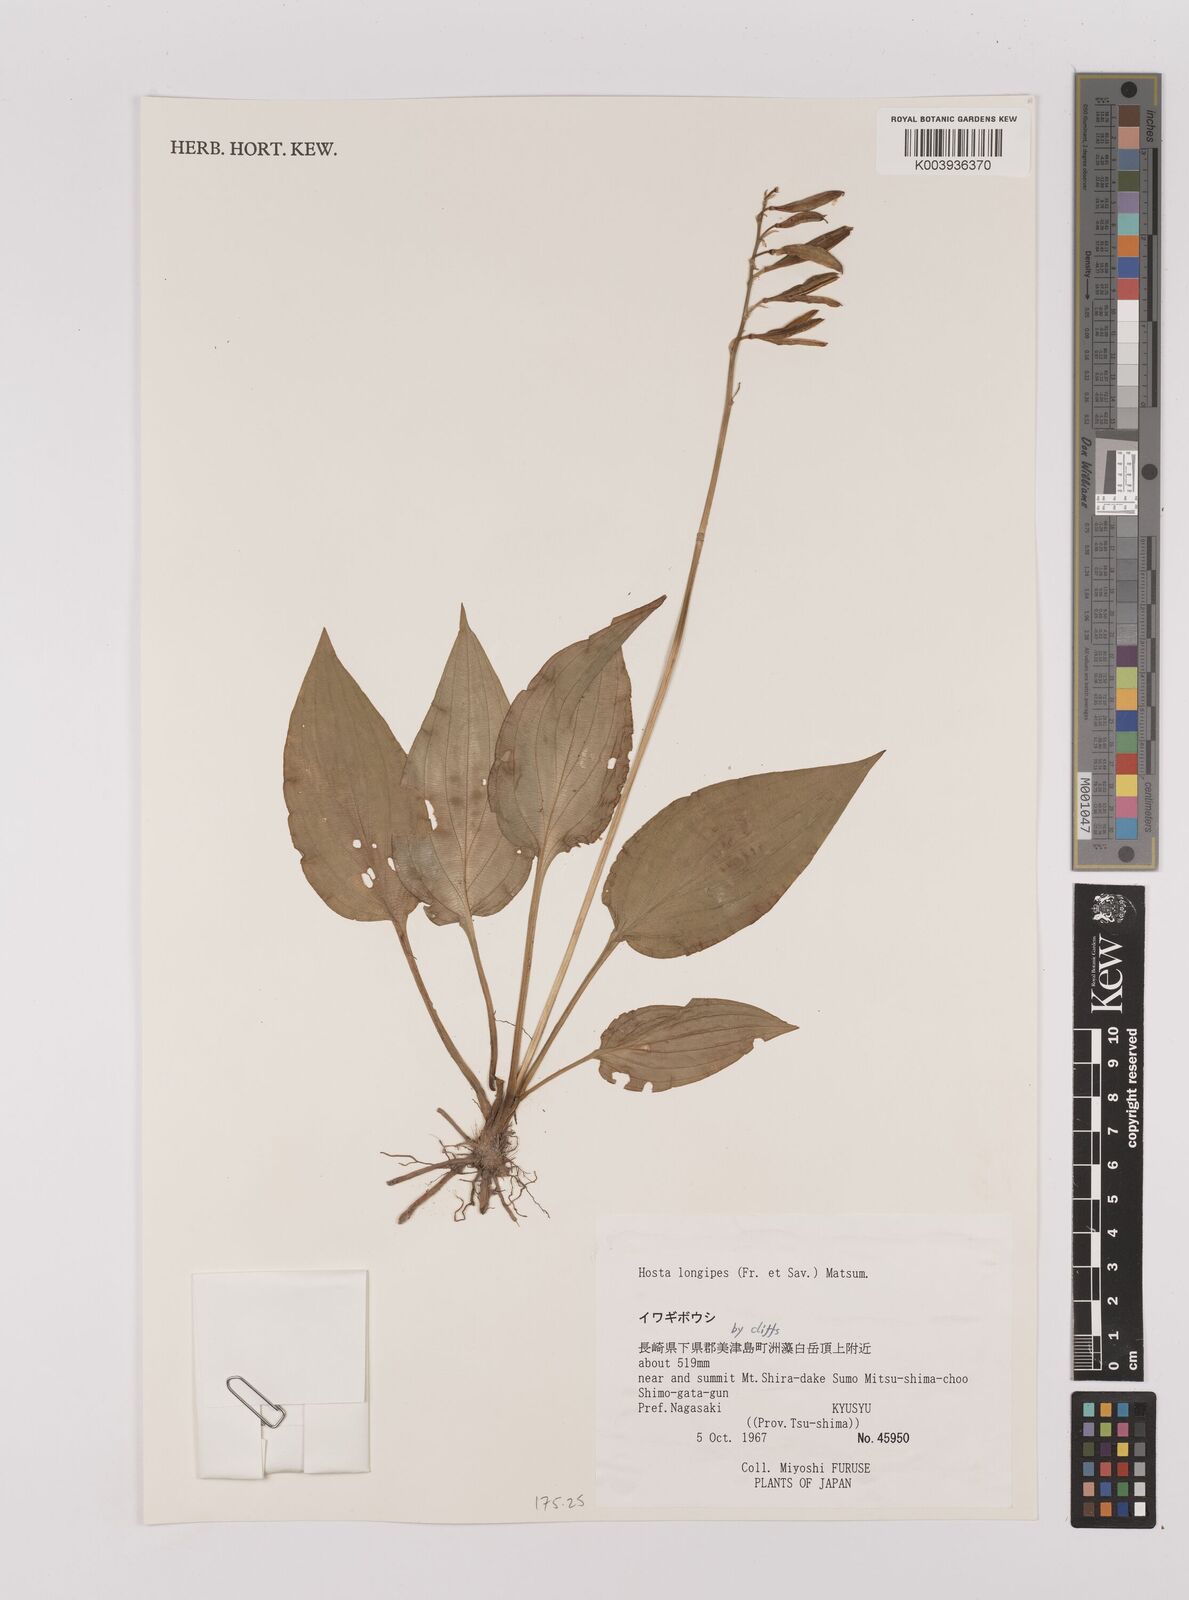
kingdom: Plantae
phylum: Tracheophyta
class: Liliopsida
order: Asparagales
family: Asparagaceae
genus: Hosta
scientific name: Hosta
